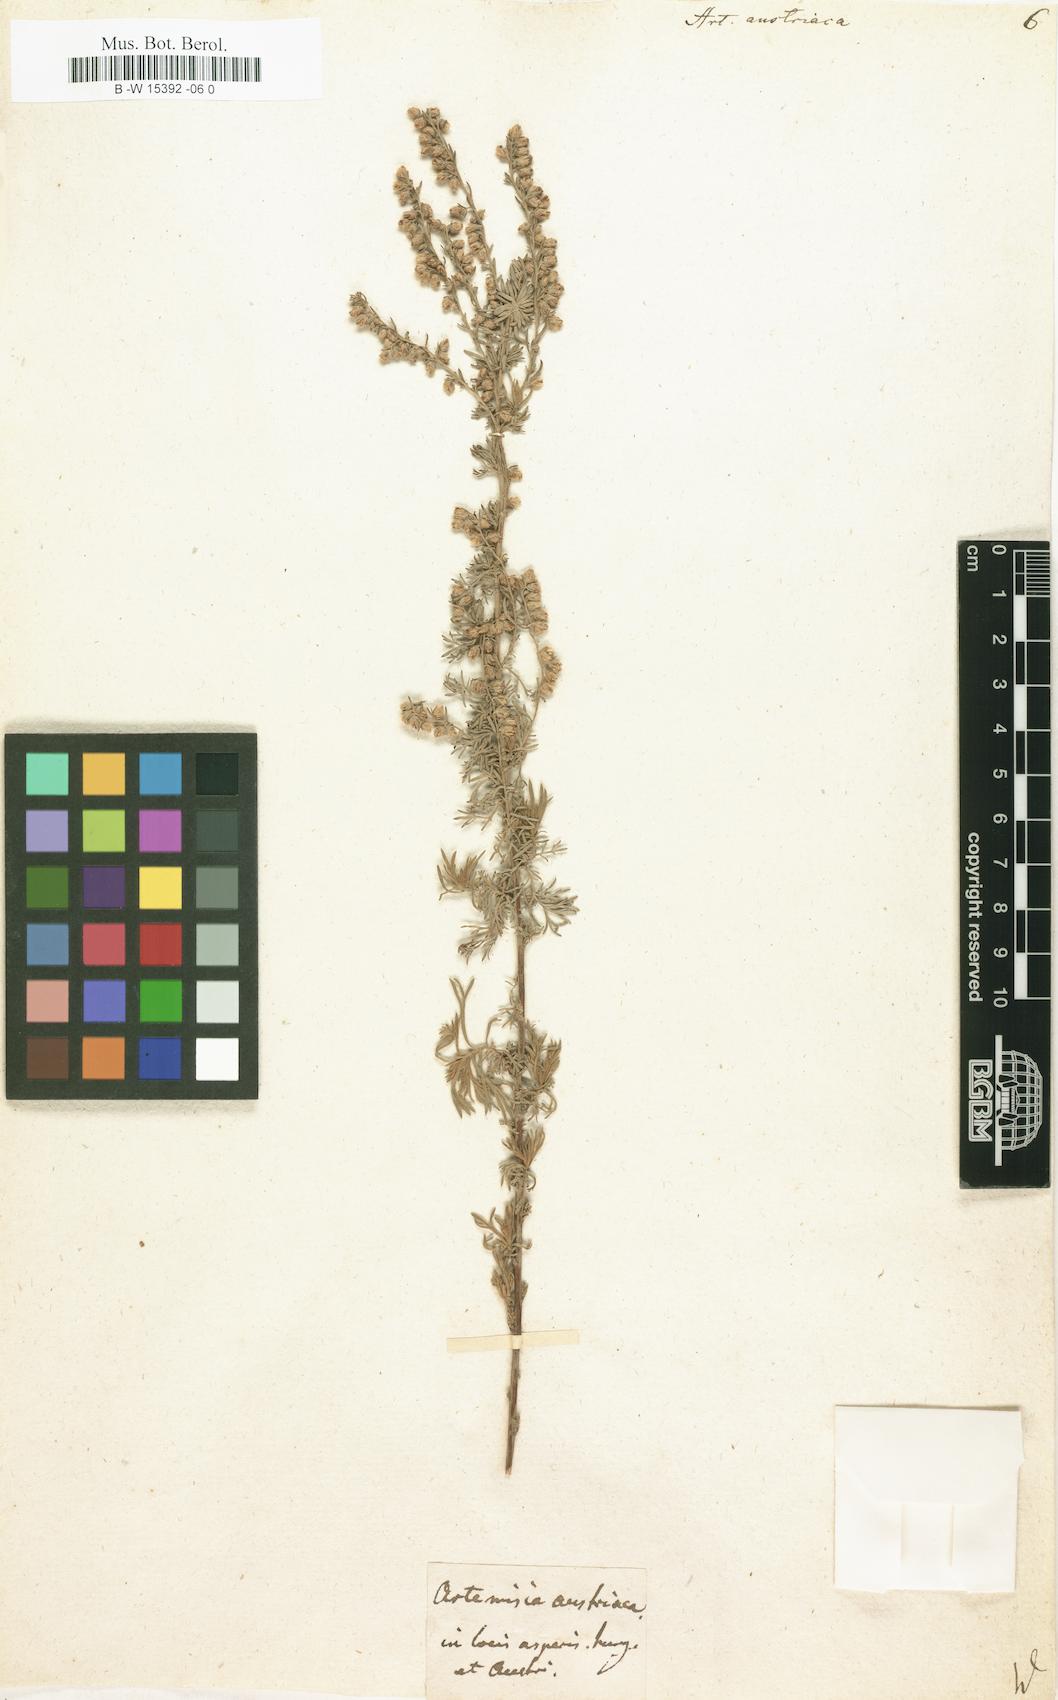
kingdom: Plantae
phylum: Tracheophyta
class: Magnoliopsida
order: Asterales
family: Asteraceae
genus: Artemisia
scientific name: Artemisia austriaca
